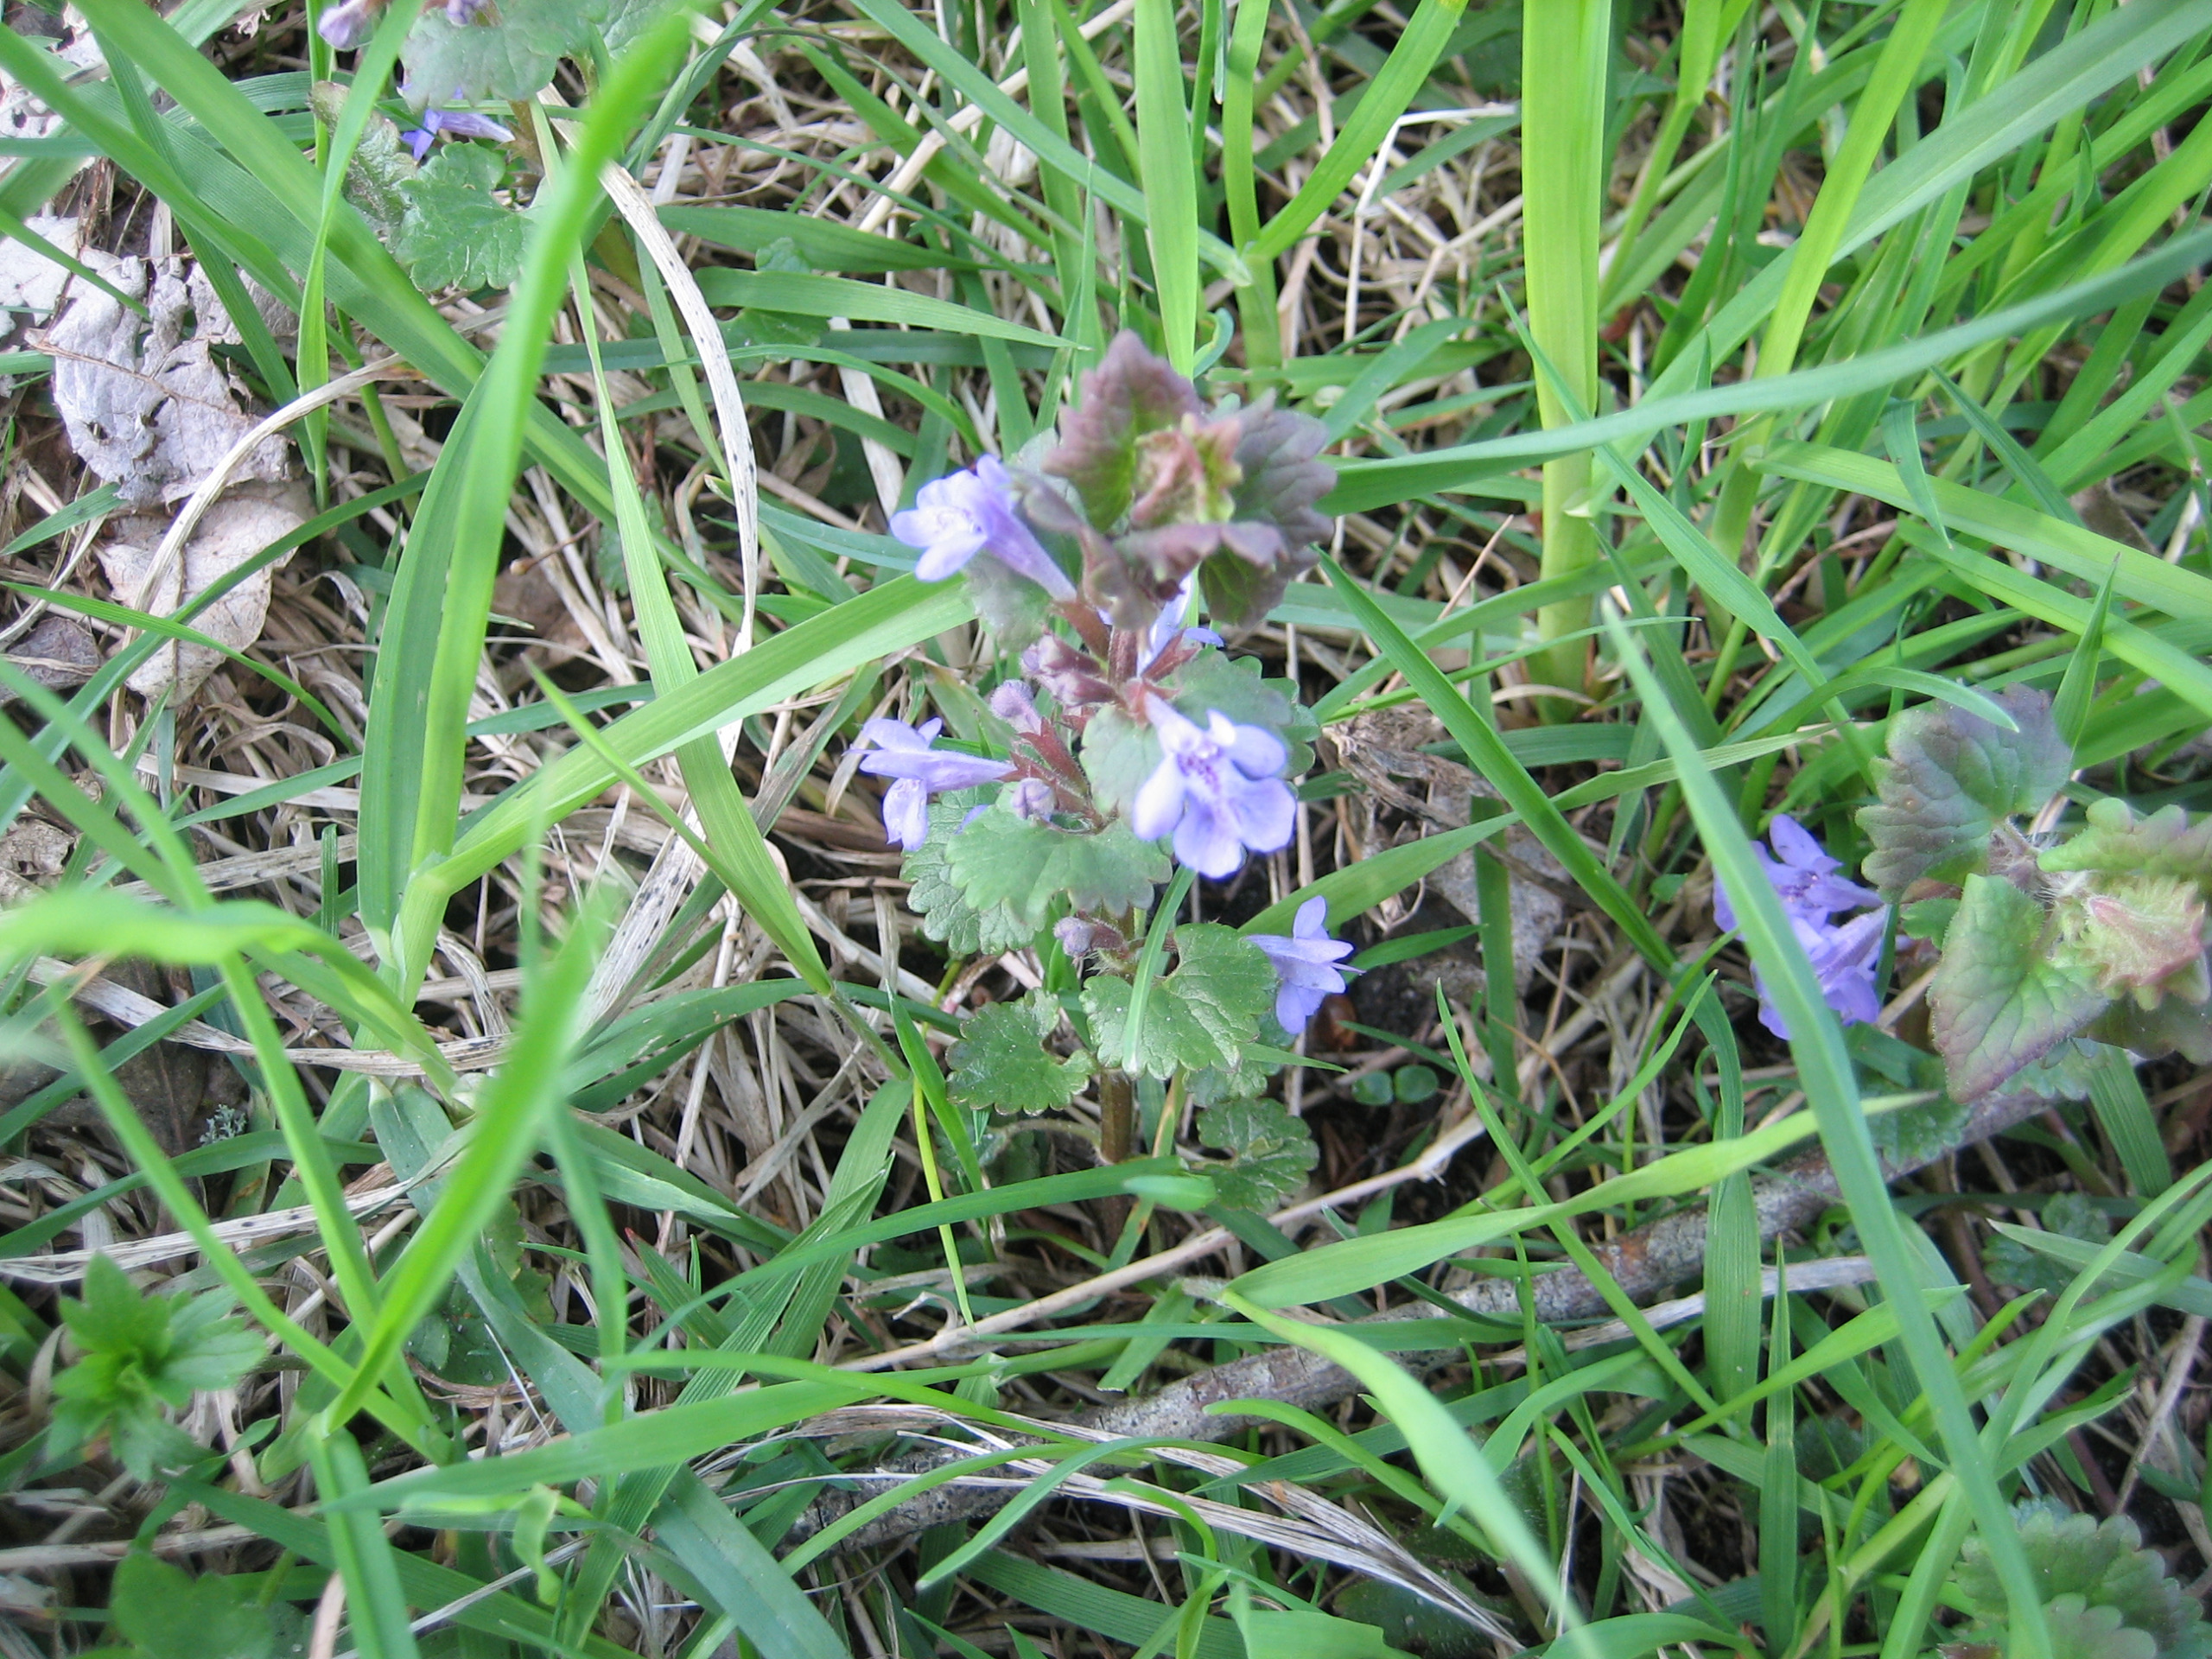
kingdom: Plantae
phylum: Tracheophyta
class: Magnoliopsida
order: Lamiales
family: Lamiaceae
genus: Glechoma
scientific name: Glechoma hederacea
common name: Korsknap
